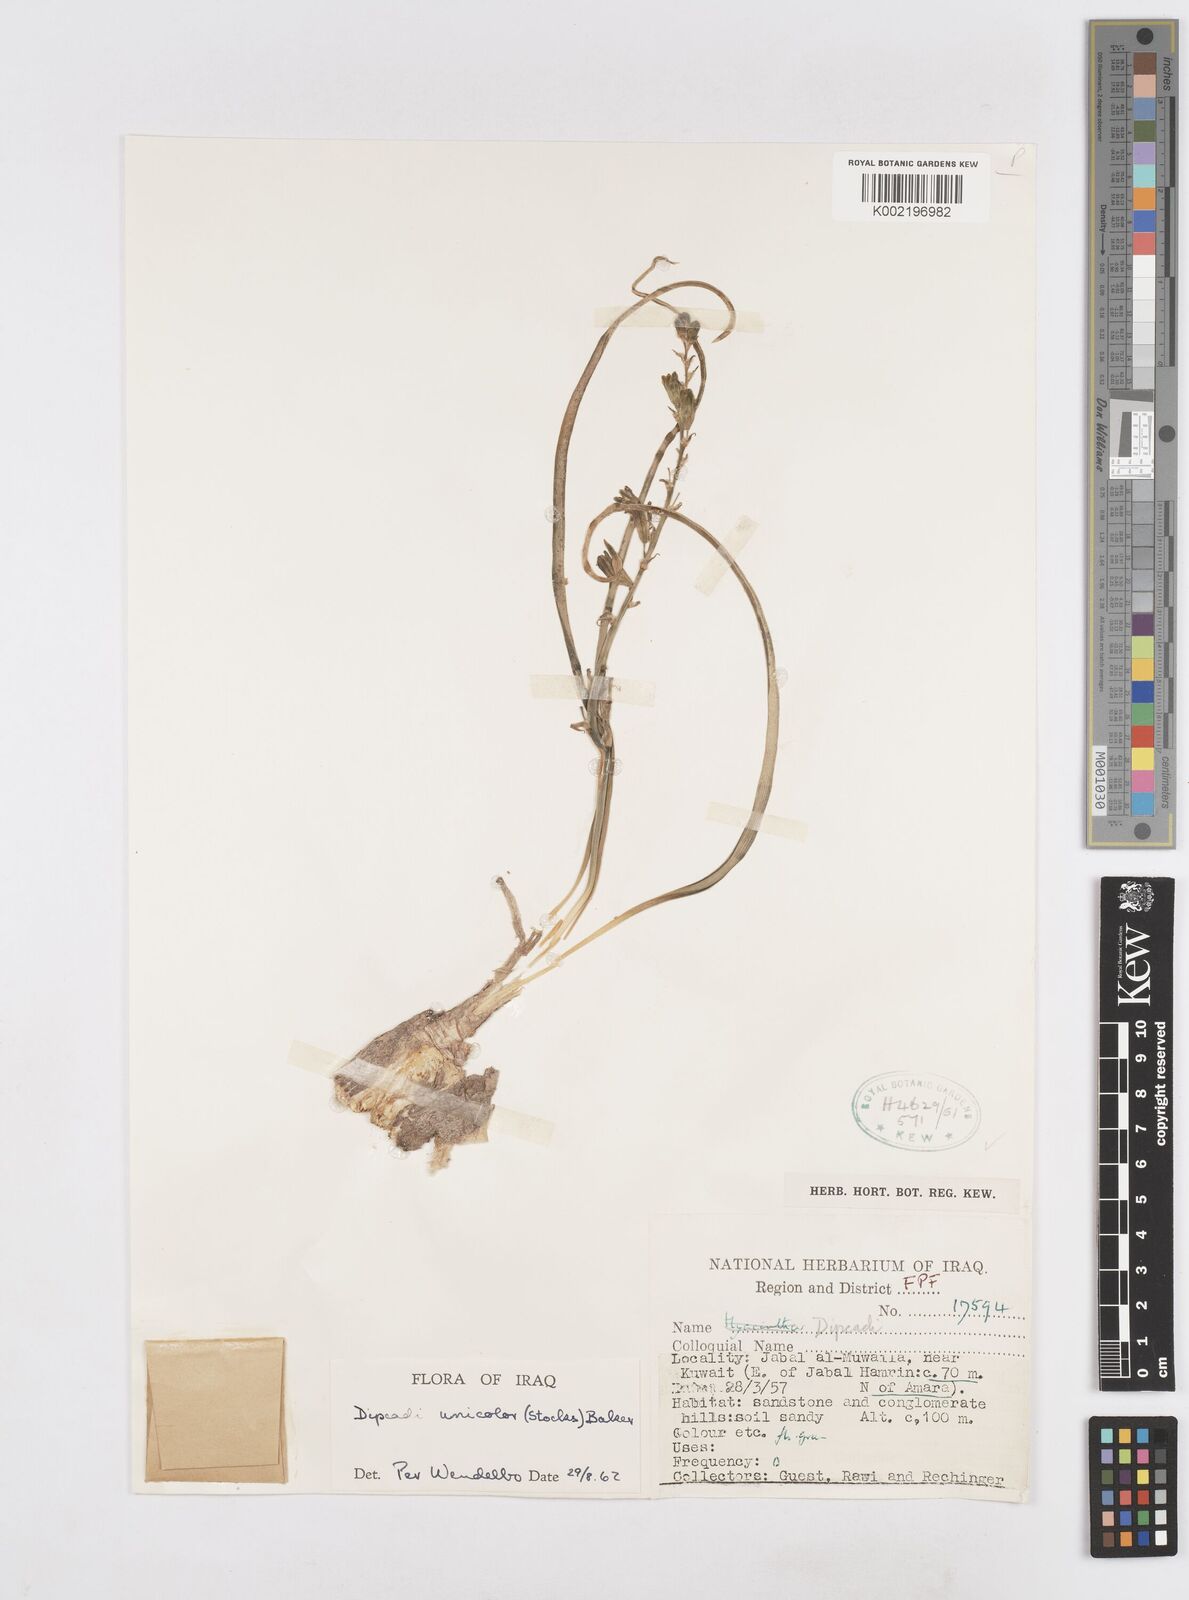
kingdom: Plantae
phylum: Tracheophyta
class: Liliopsida
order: Asparagales
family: Asparagaceae
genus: Dipcadi
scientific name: Dipcadi erythraeum
